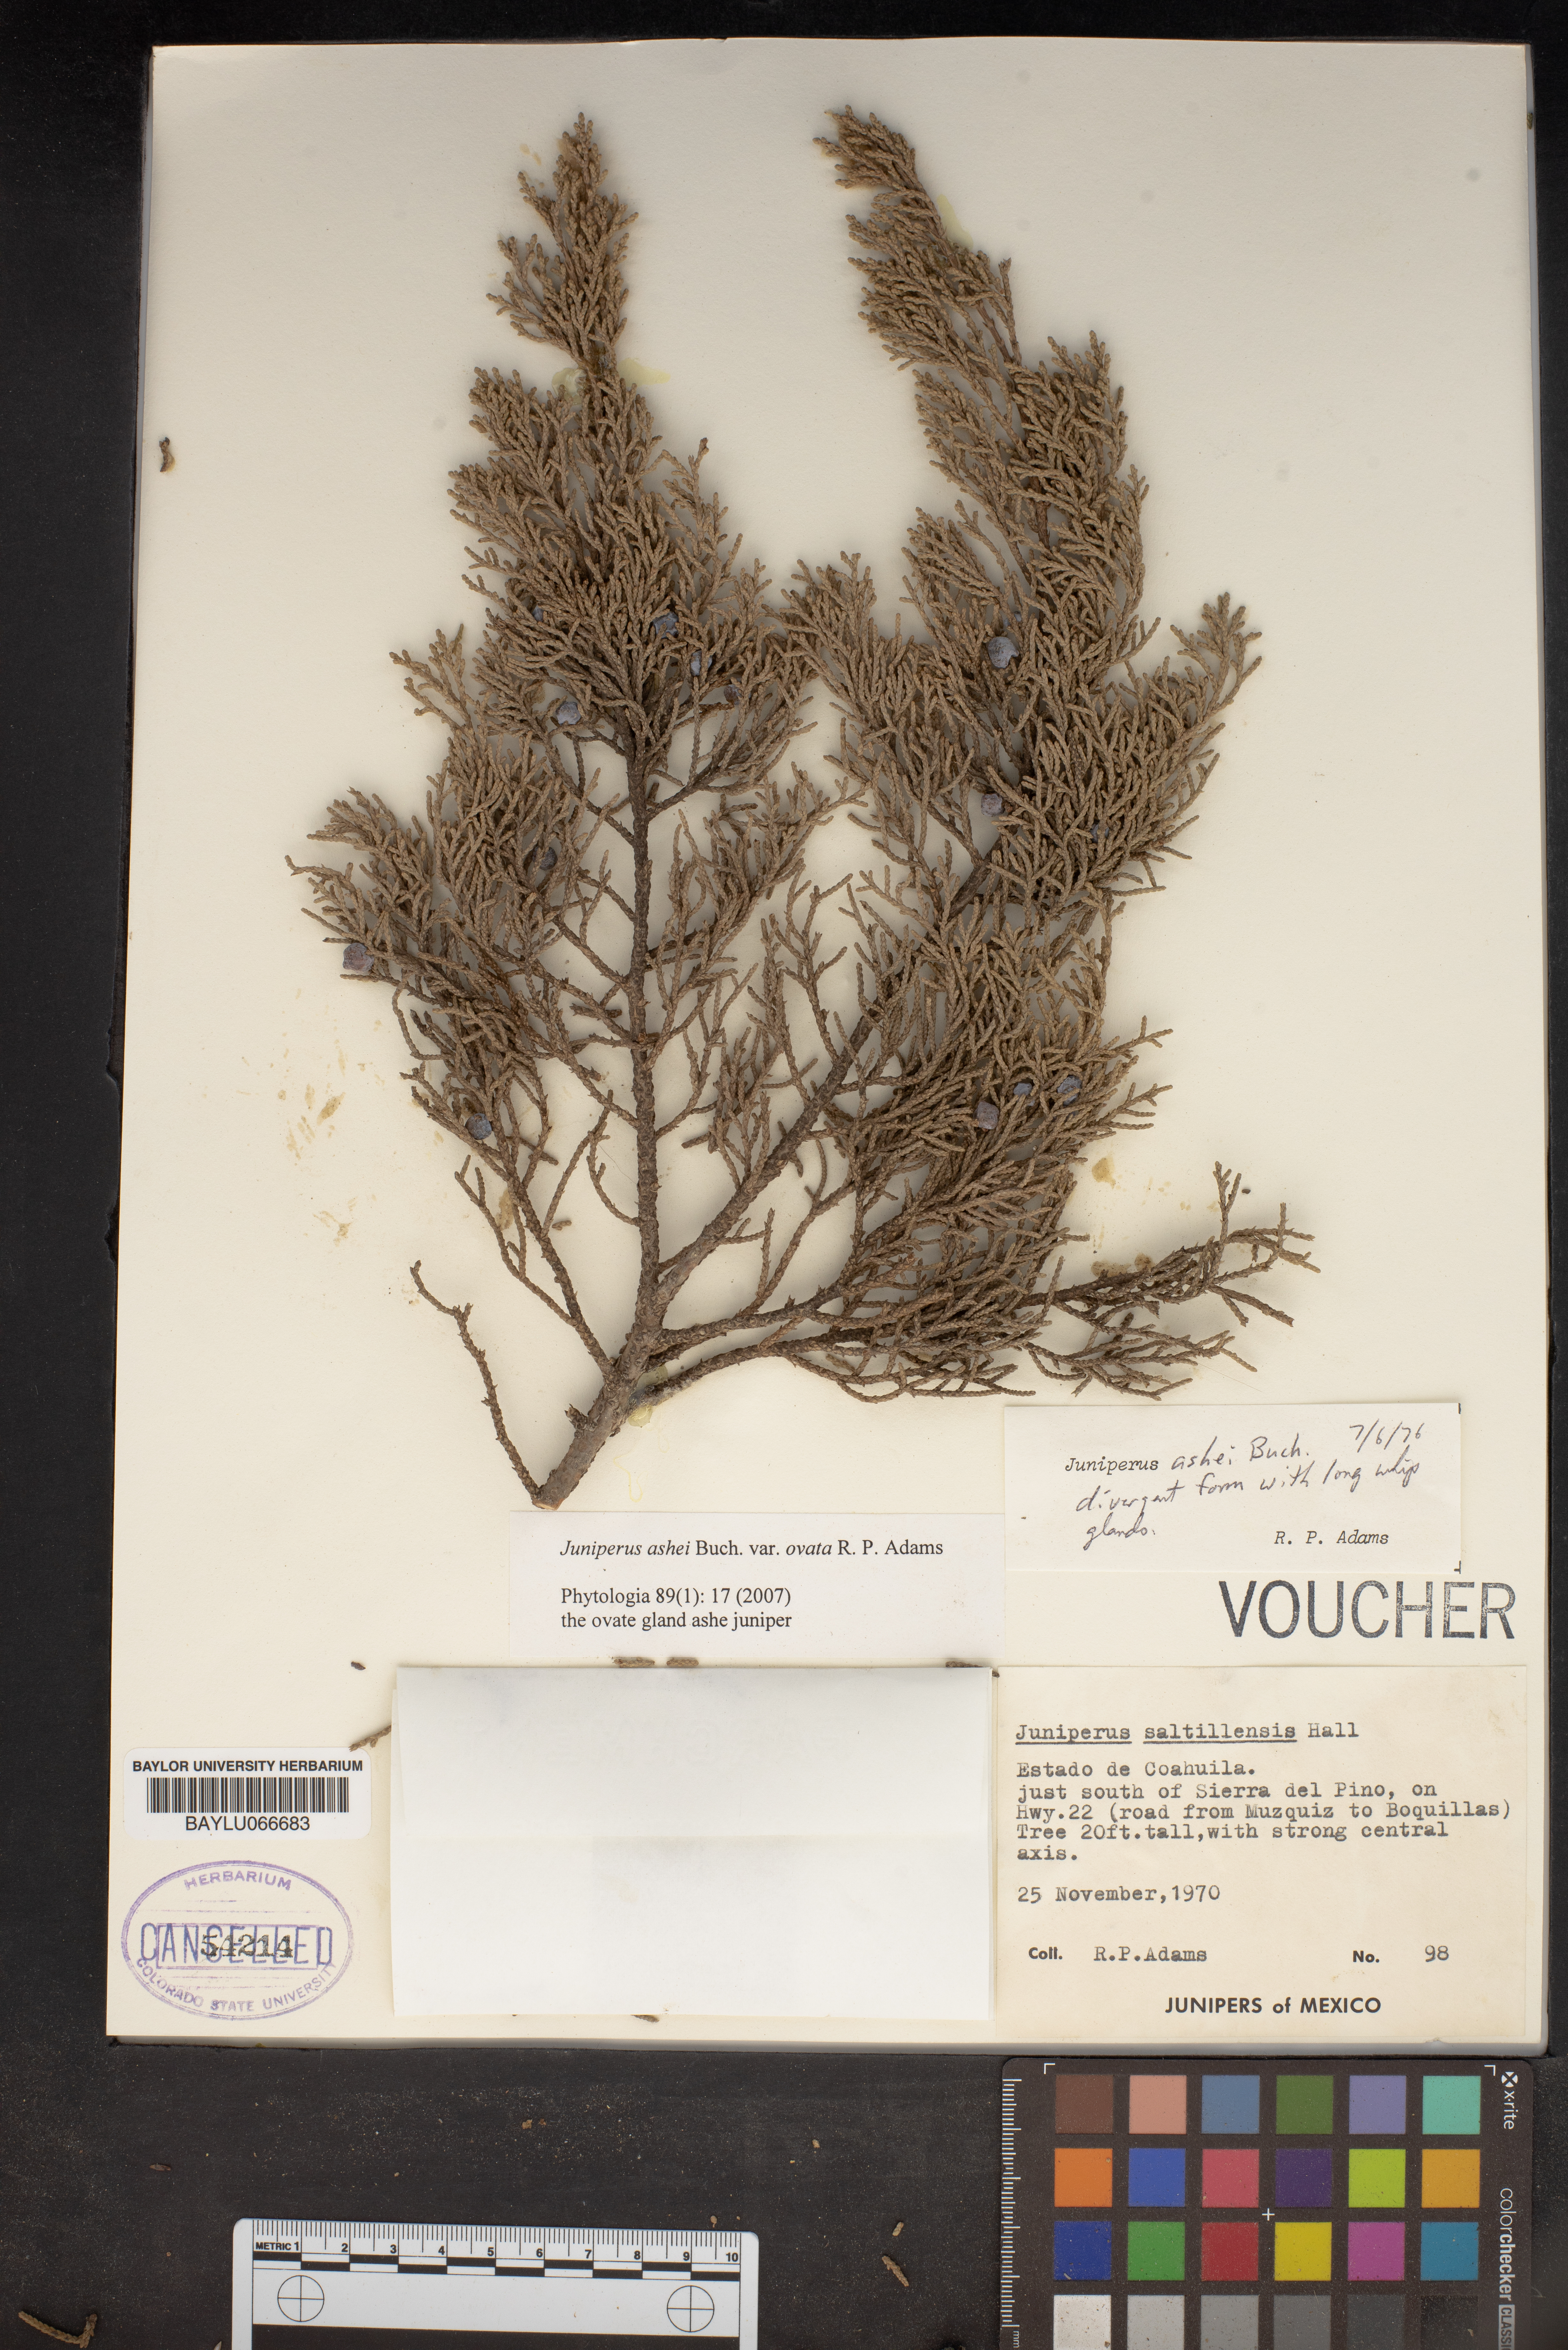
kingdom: Plantae
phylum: Tracheophyta
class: Pinopsida
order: Pinales
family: Cupressaceae
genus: Juniperus
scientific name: Juniperus saltillensis
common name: Saltillo juniper
